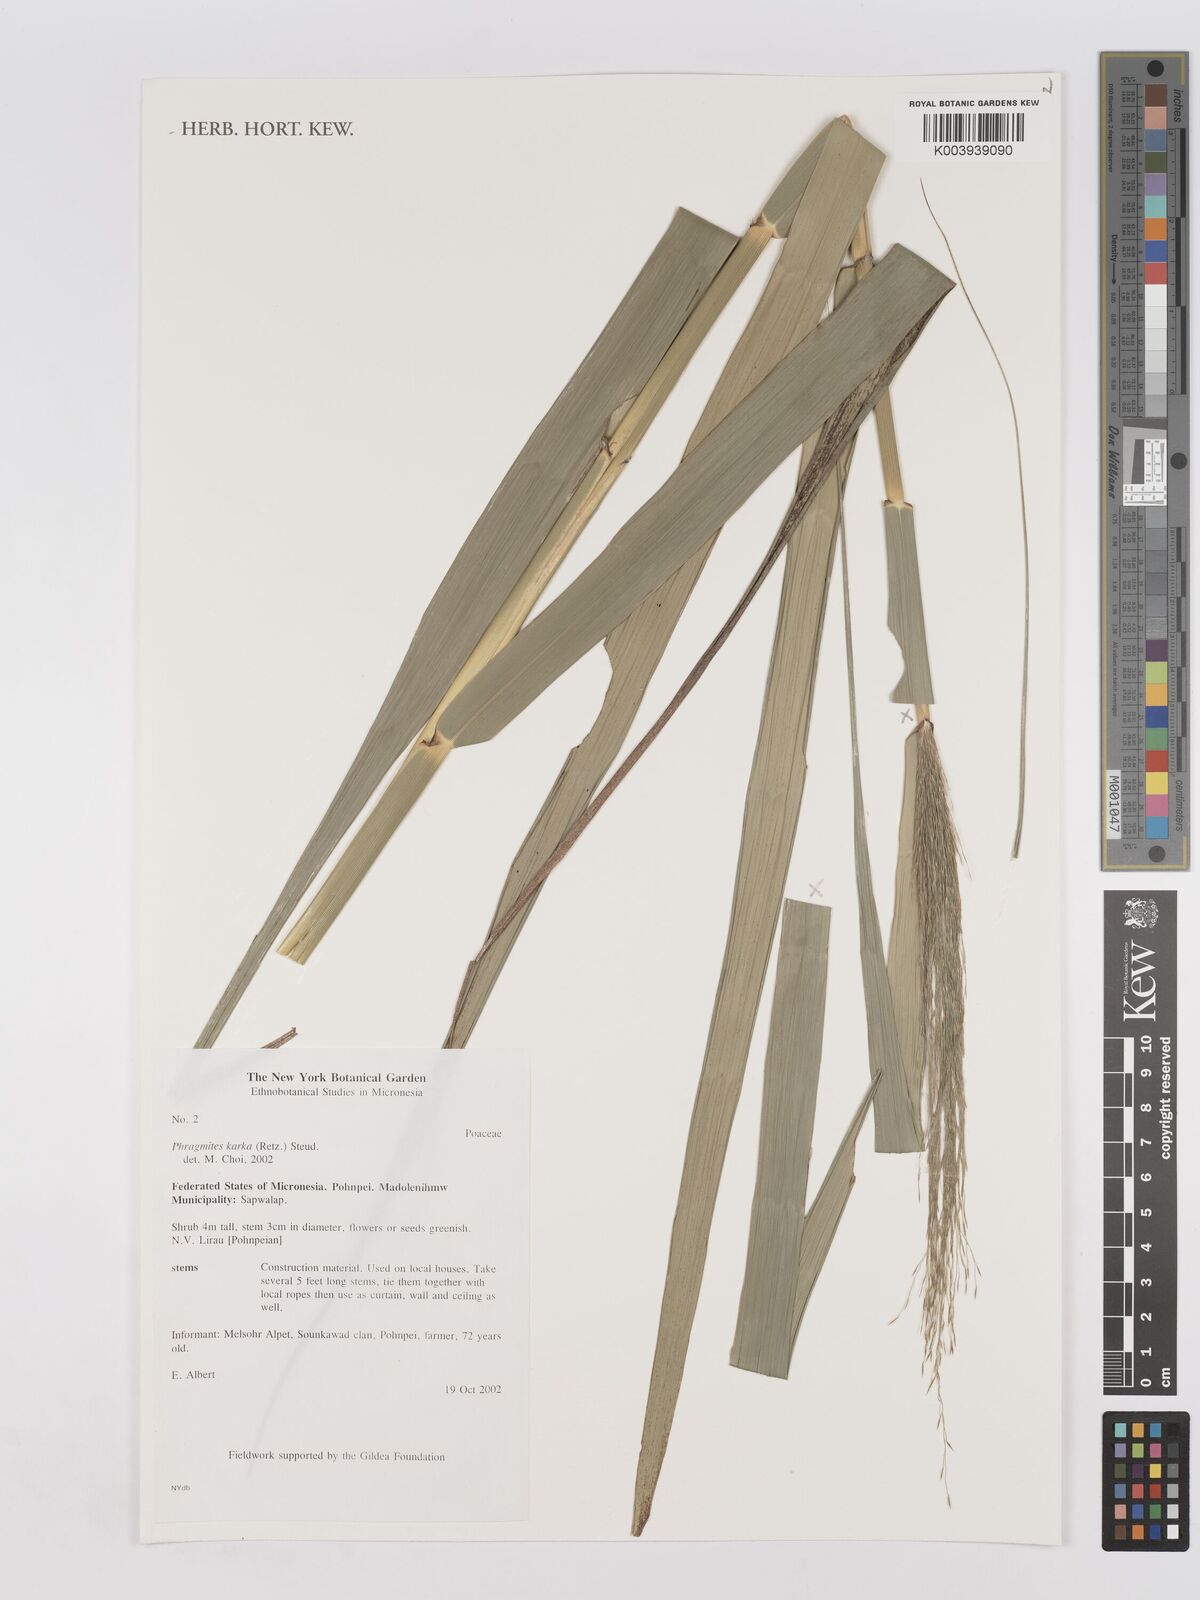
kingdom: Plantae
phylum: Tracheophyta
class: Liliopsida
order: Poales
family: Poaceae
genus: Phragmites
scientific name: Phragmites karka
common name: Tropical reed
